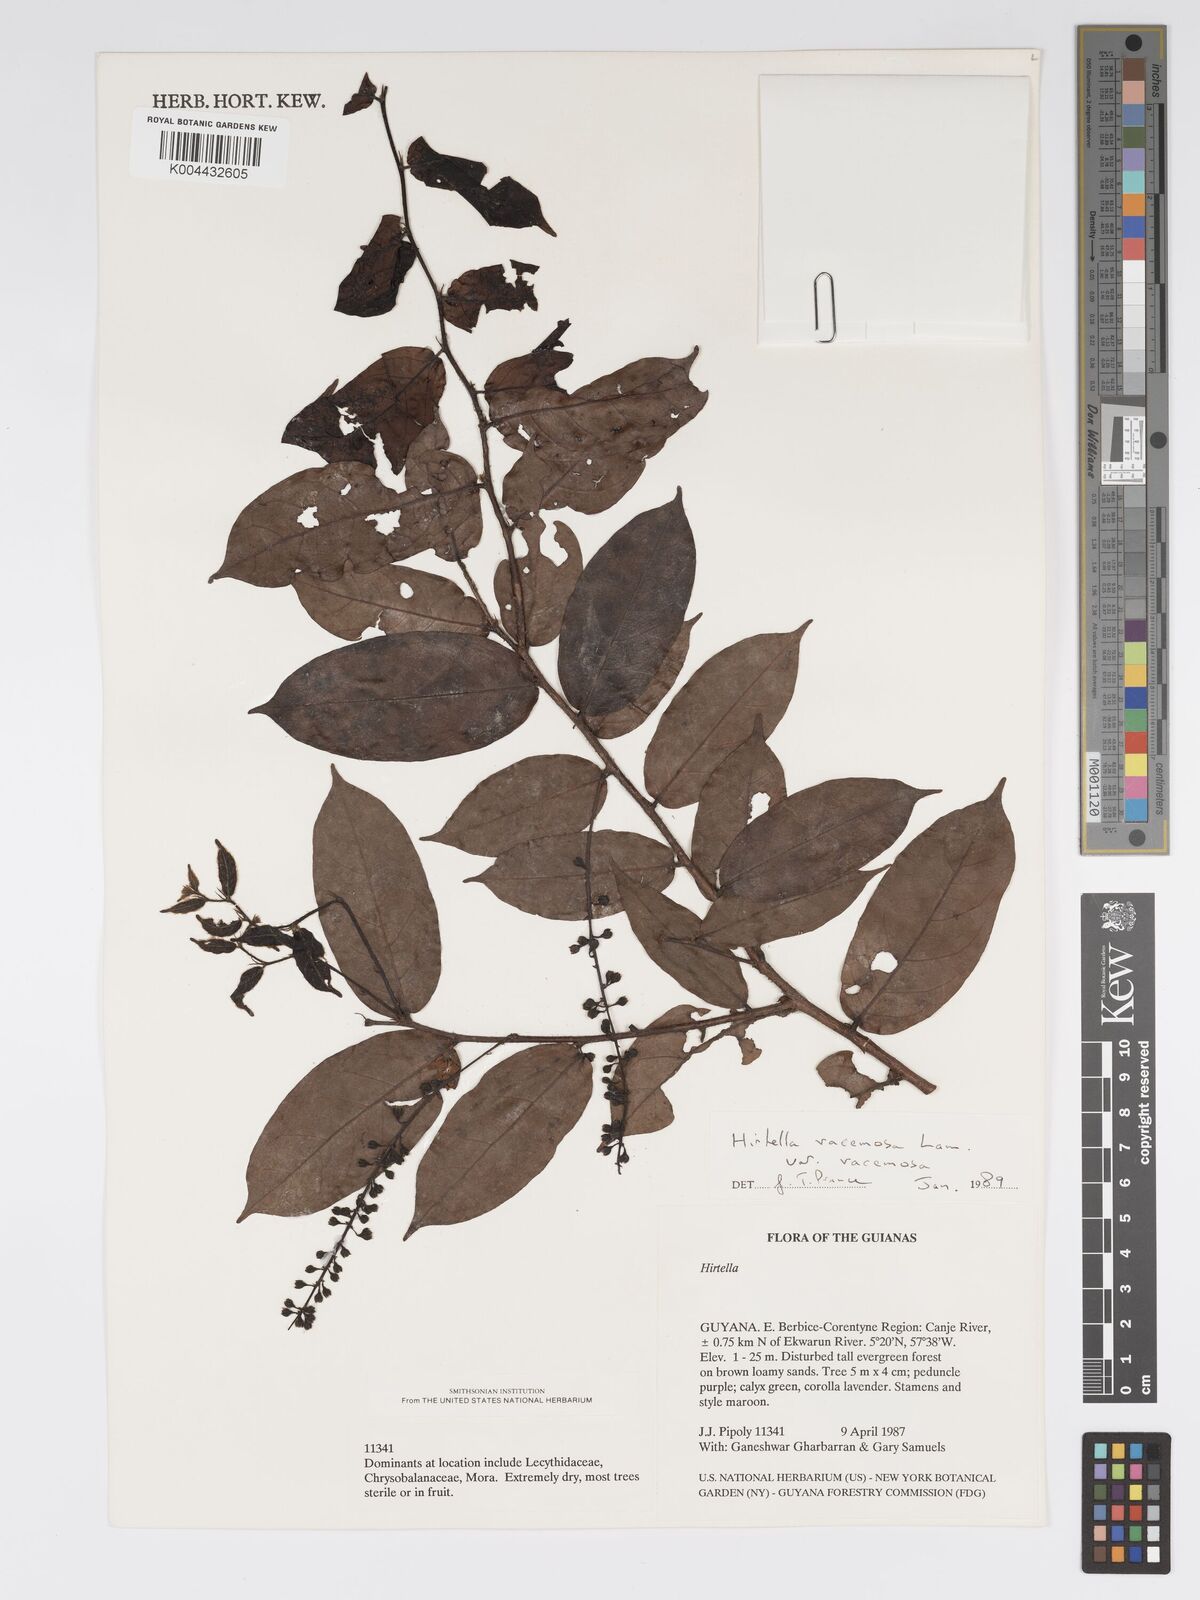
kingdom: Plantae
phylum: Tracheophyta
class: Magnoliopsida
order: Malpighiales
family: Chrysobalanaceae
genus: Hirtella
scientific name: Hirtella racemosa
